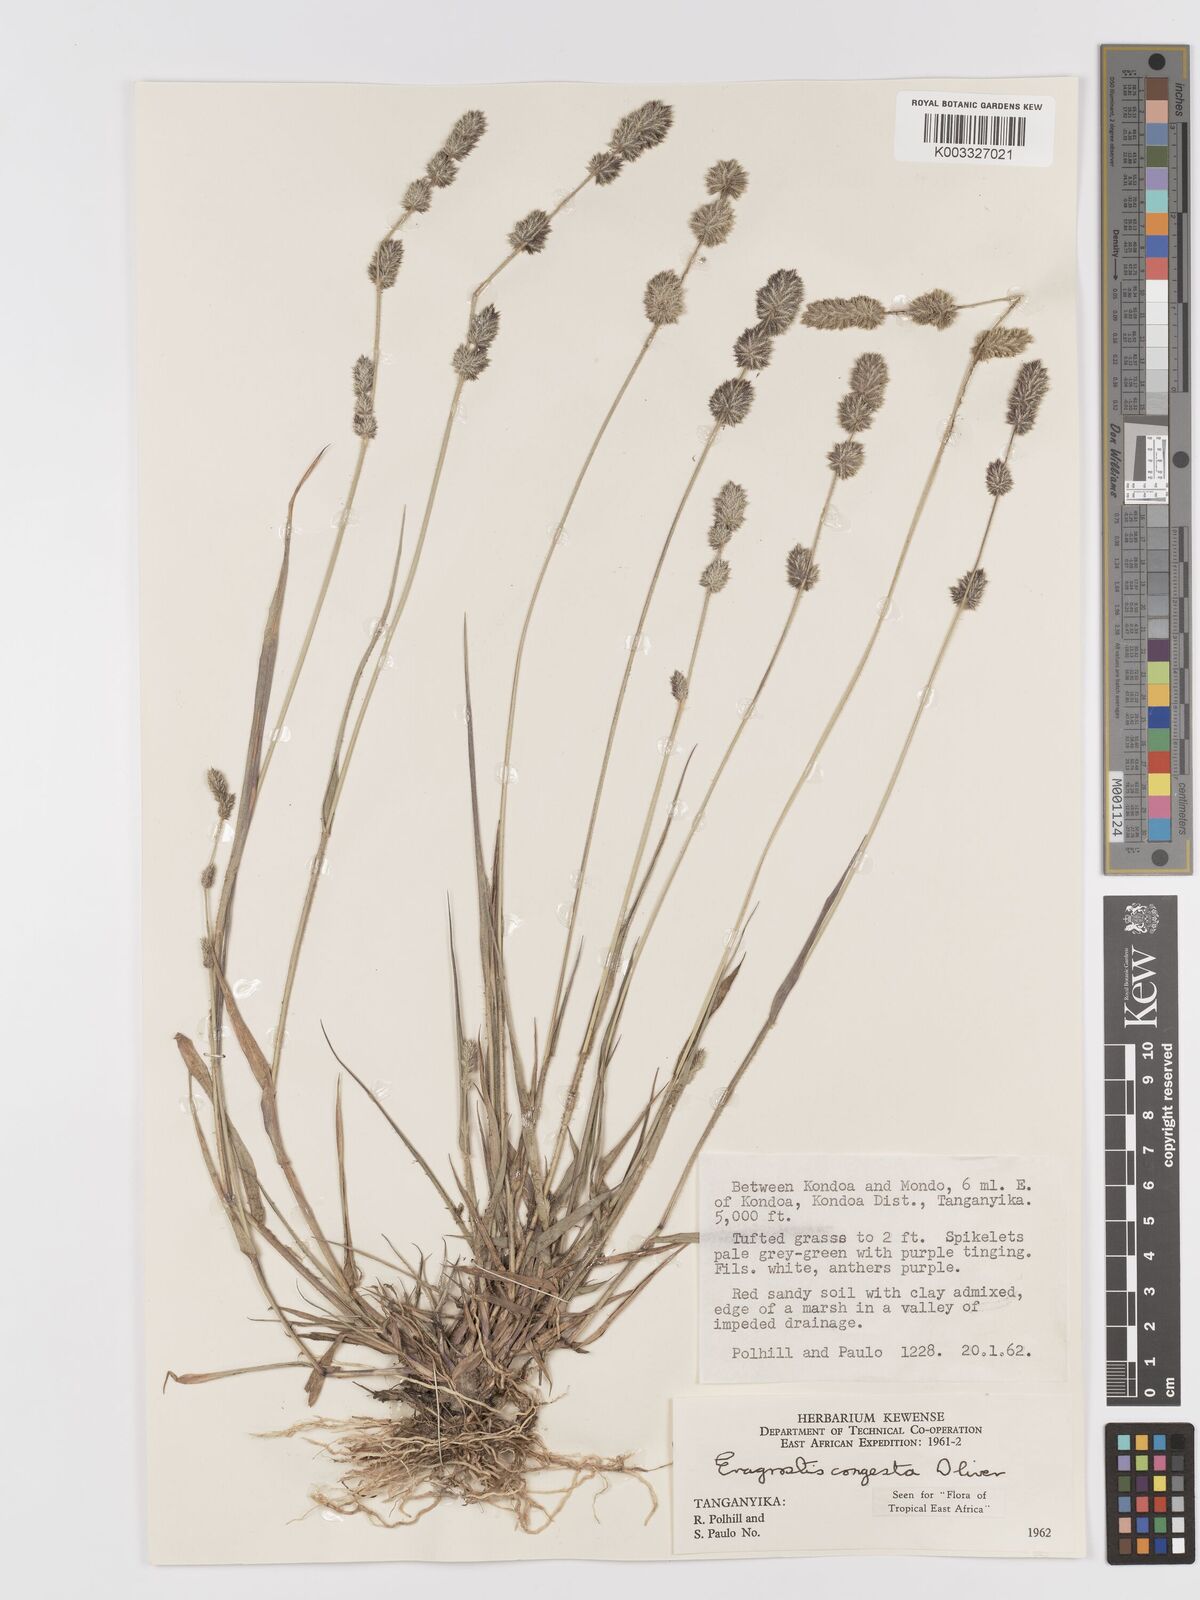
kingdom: Plantae
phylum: Tracheophyta
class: Liliopsida
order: Poales
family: Poaceae
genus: Eragrostis
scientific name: Eragrostis congesta
